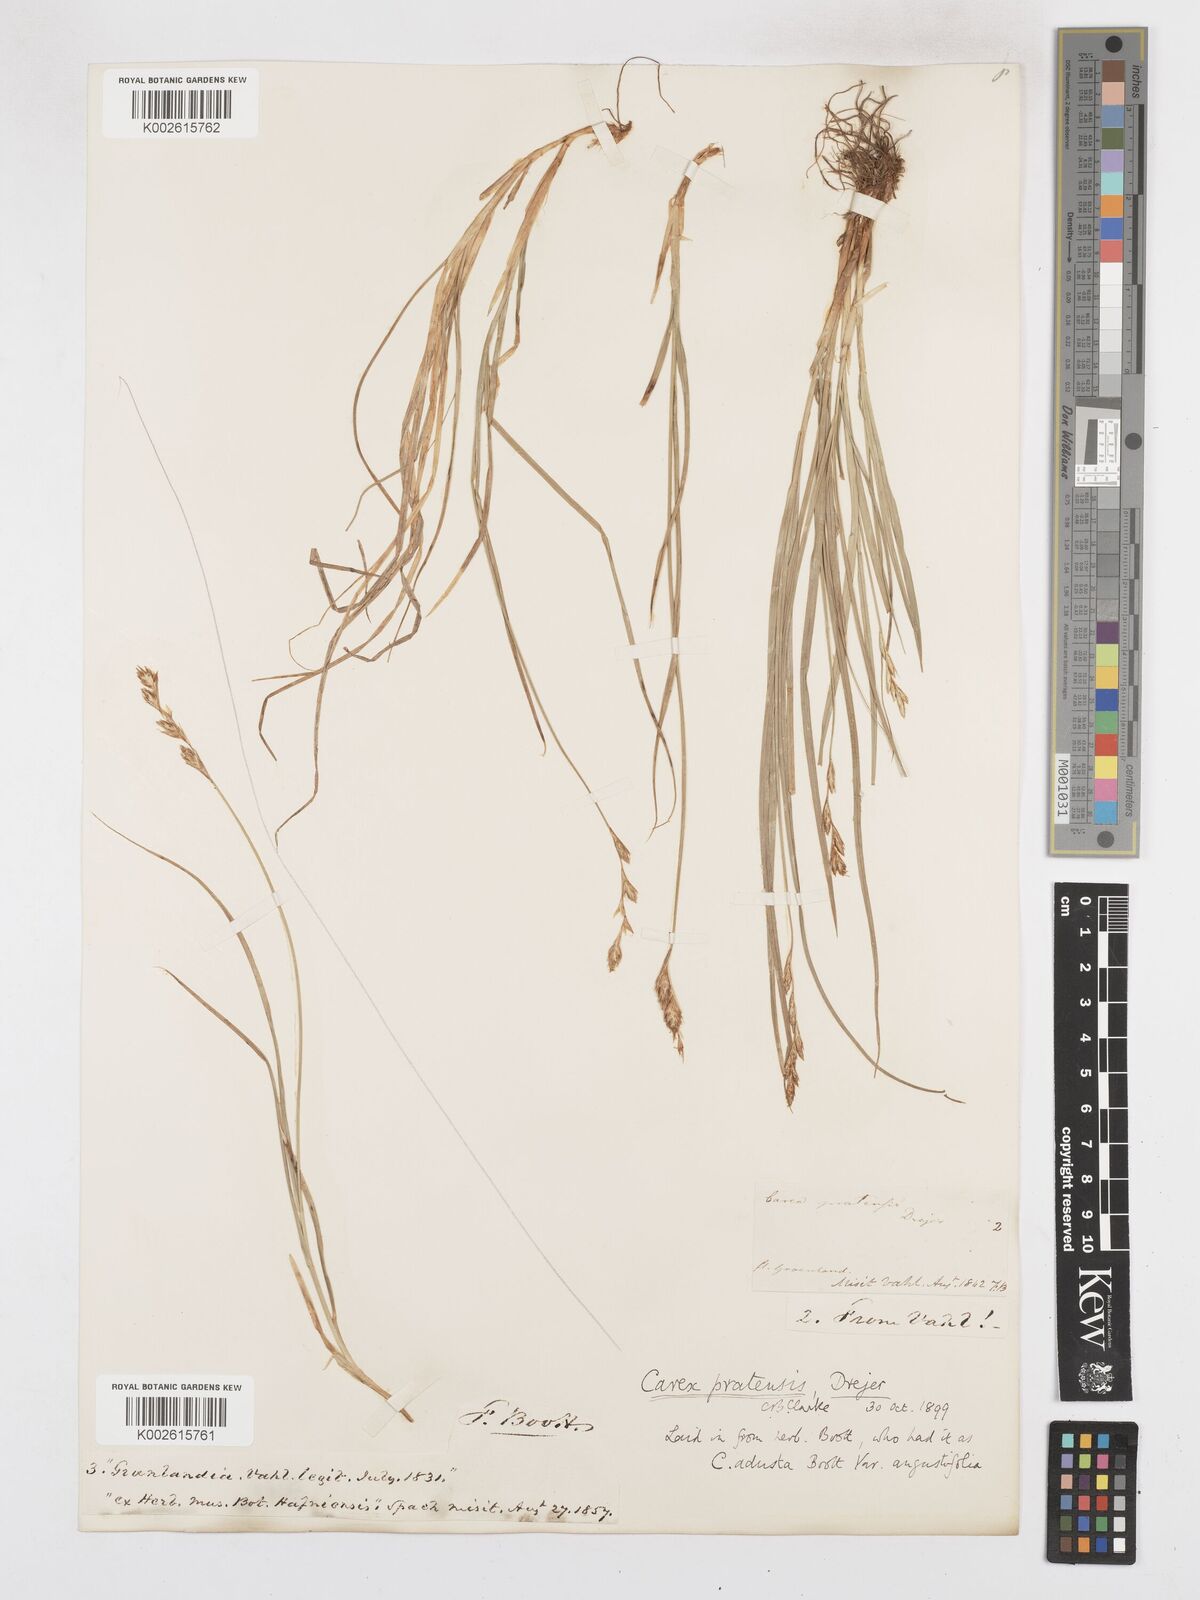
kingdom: Plantae
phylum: Tracheophyta
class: Liliopsida
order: Poales
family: Cyperaceae
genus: Carex
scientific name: Carex praticola
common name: Large-fruited oval sedge
